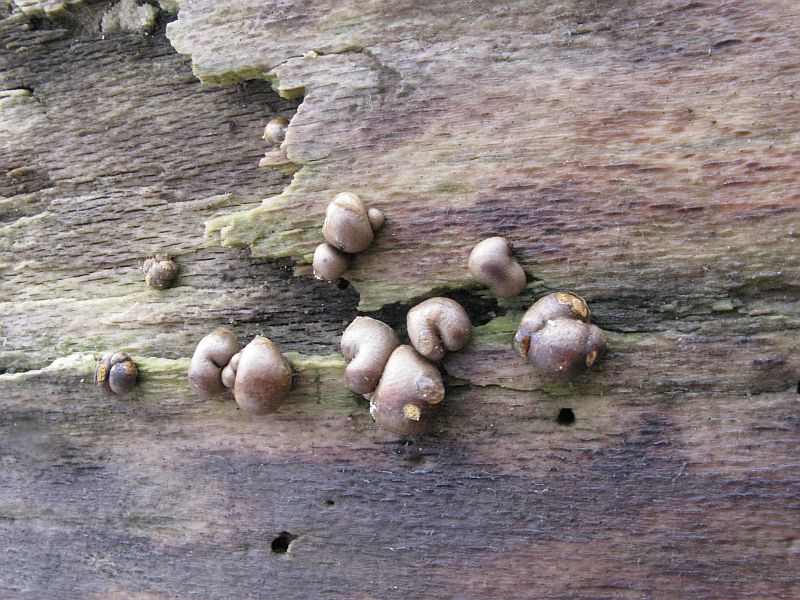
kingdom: Protozoa
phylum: Mycetozoa
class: Myxomycetes
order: Cribrariales
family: Tubiferaceae
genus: Lycogala
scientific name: Lycogala epidendrum
